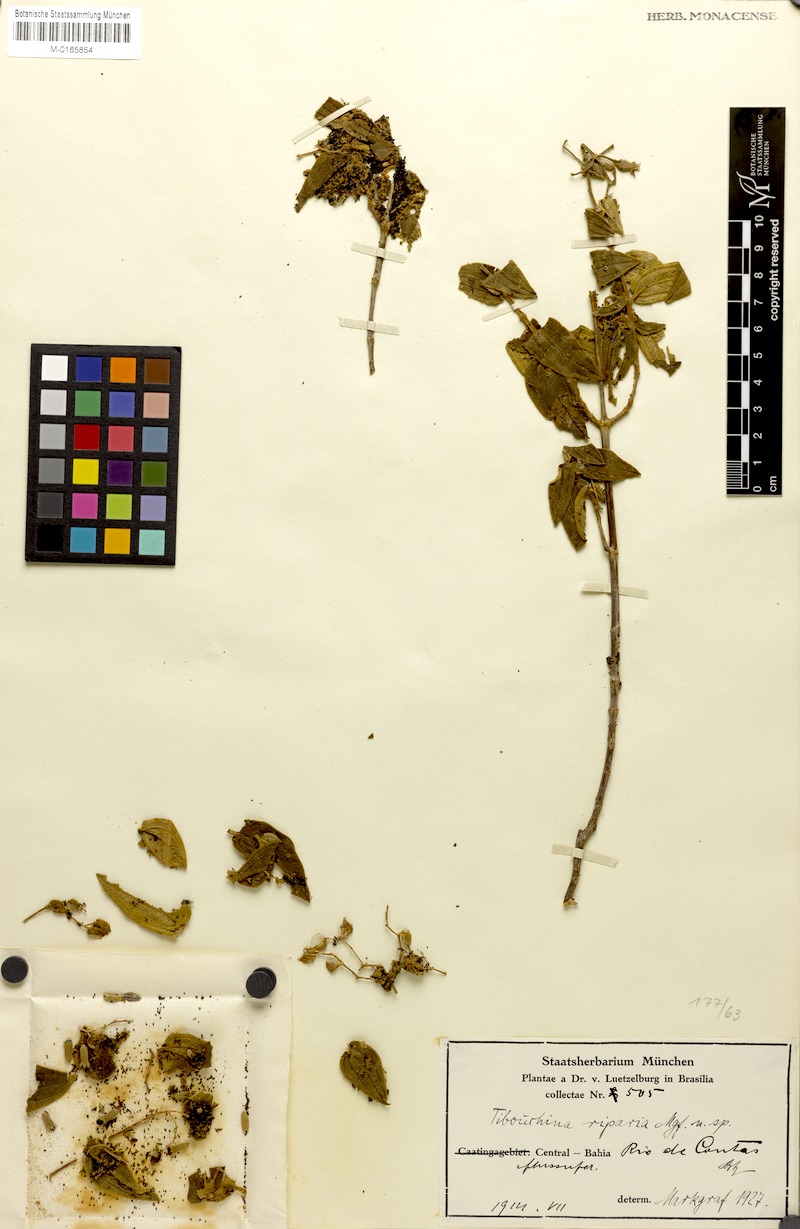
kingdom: Plantae
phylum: Tracheophyta
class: Magnoliopsida
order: Myrtales
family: Melastomataceae
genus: Pleroma
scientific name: Pleroma riparium
